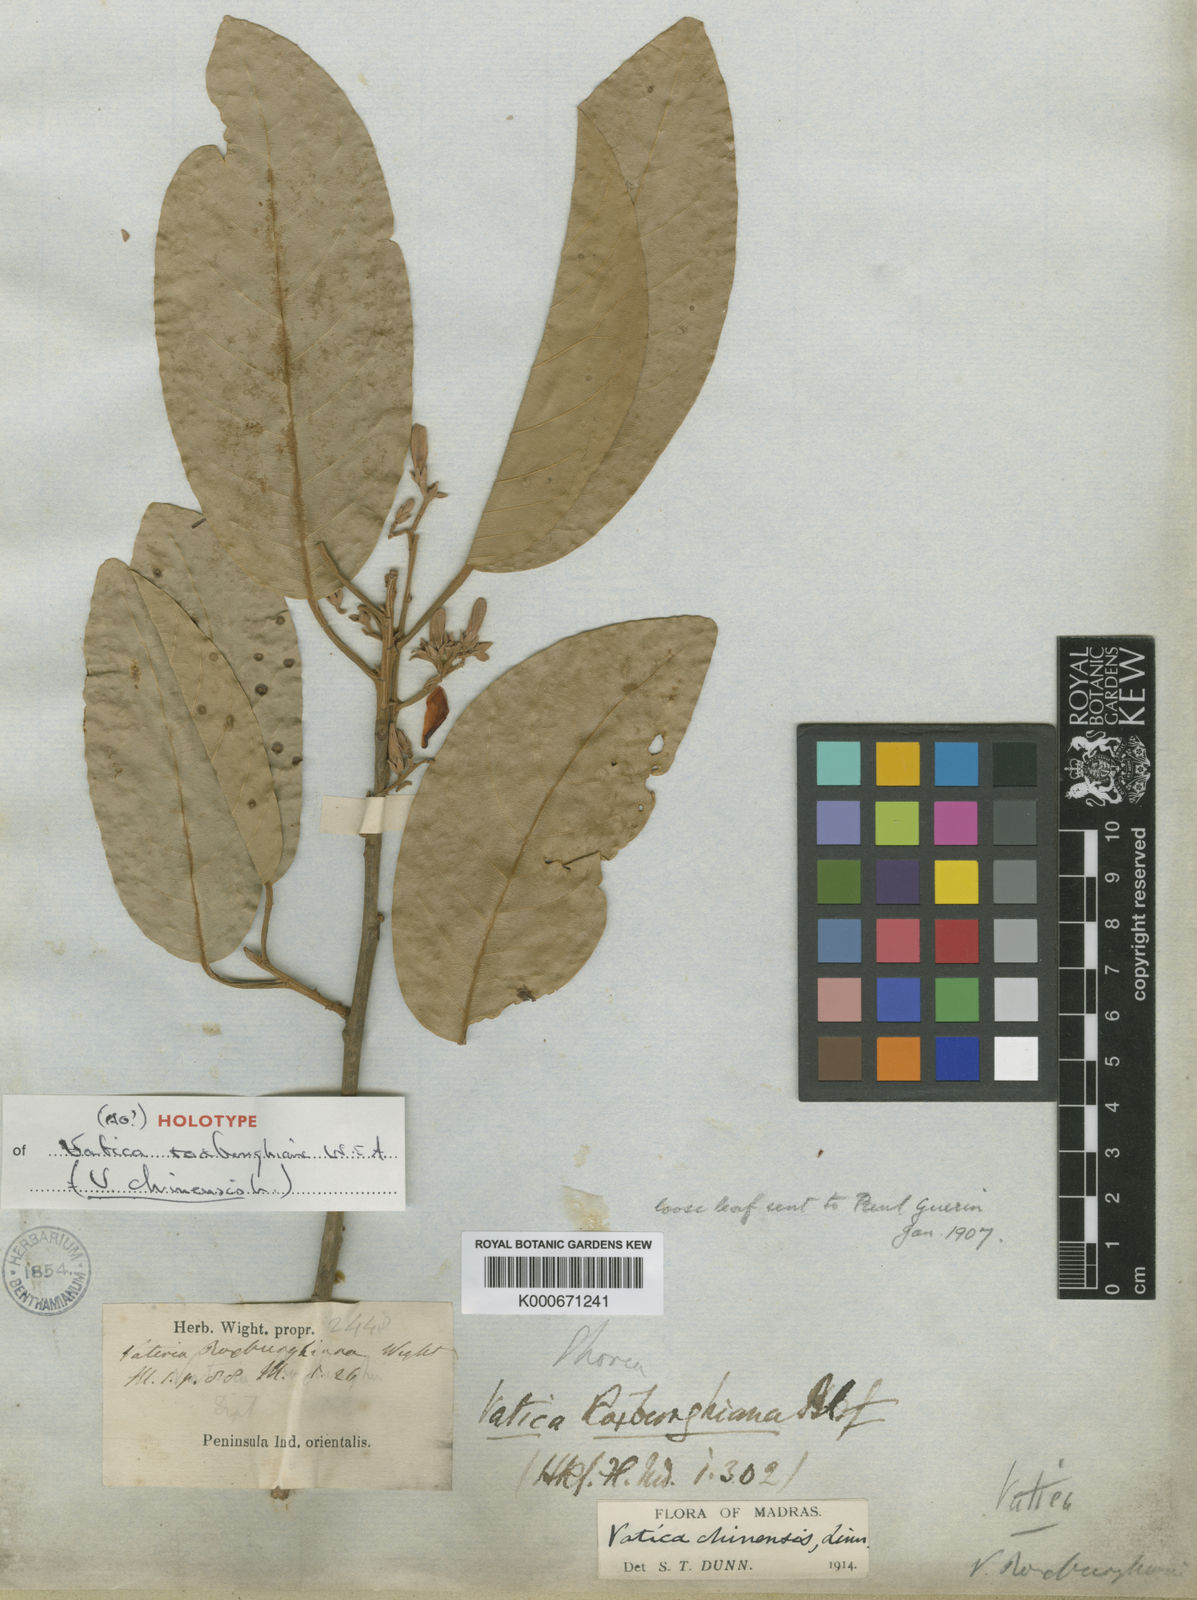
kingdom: Plantae
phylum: Tracheophyta
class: Magnoliopsida
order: Malvales
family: Dipterocarpaceae
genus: Vatica
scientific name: Vatica chinensis
